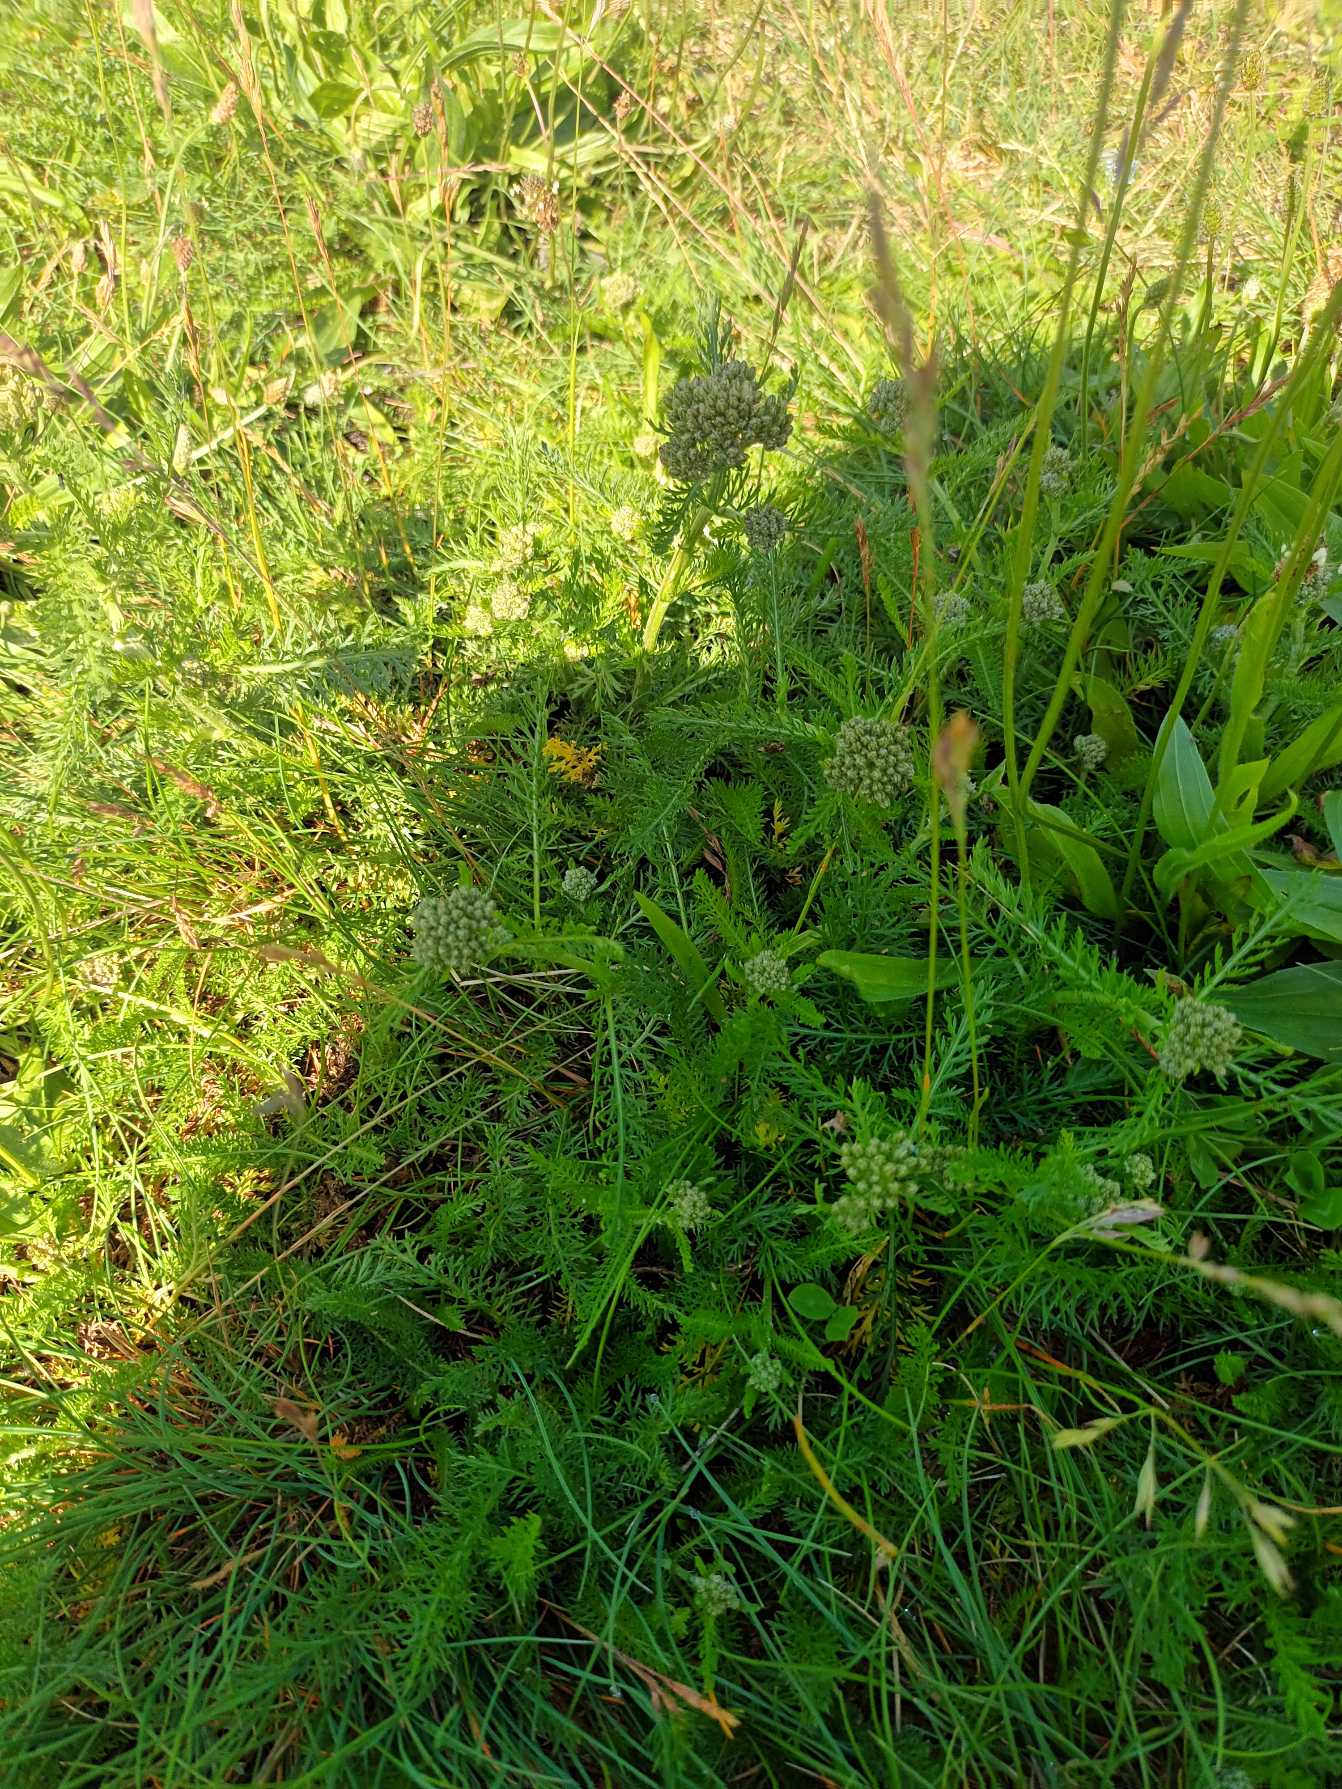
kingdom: Plantae
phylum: Tracheophyta
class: Magnoliopsida
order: Asterales
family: Asteraceae
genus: Achillea
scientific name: Achillea millefolium
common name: Almindelig røllike
